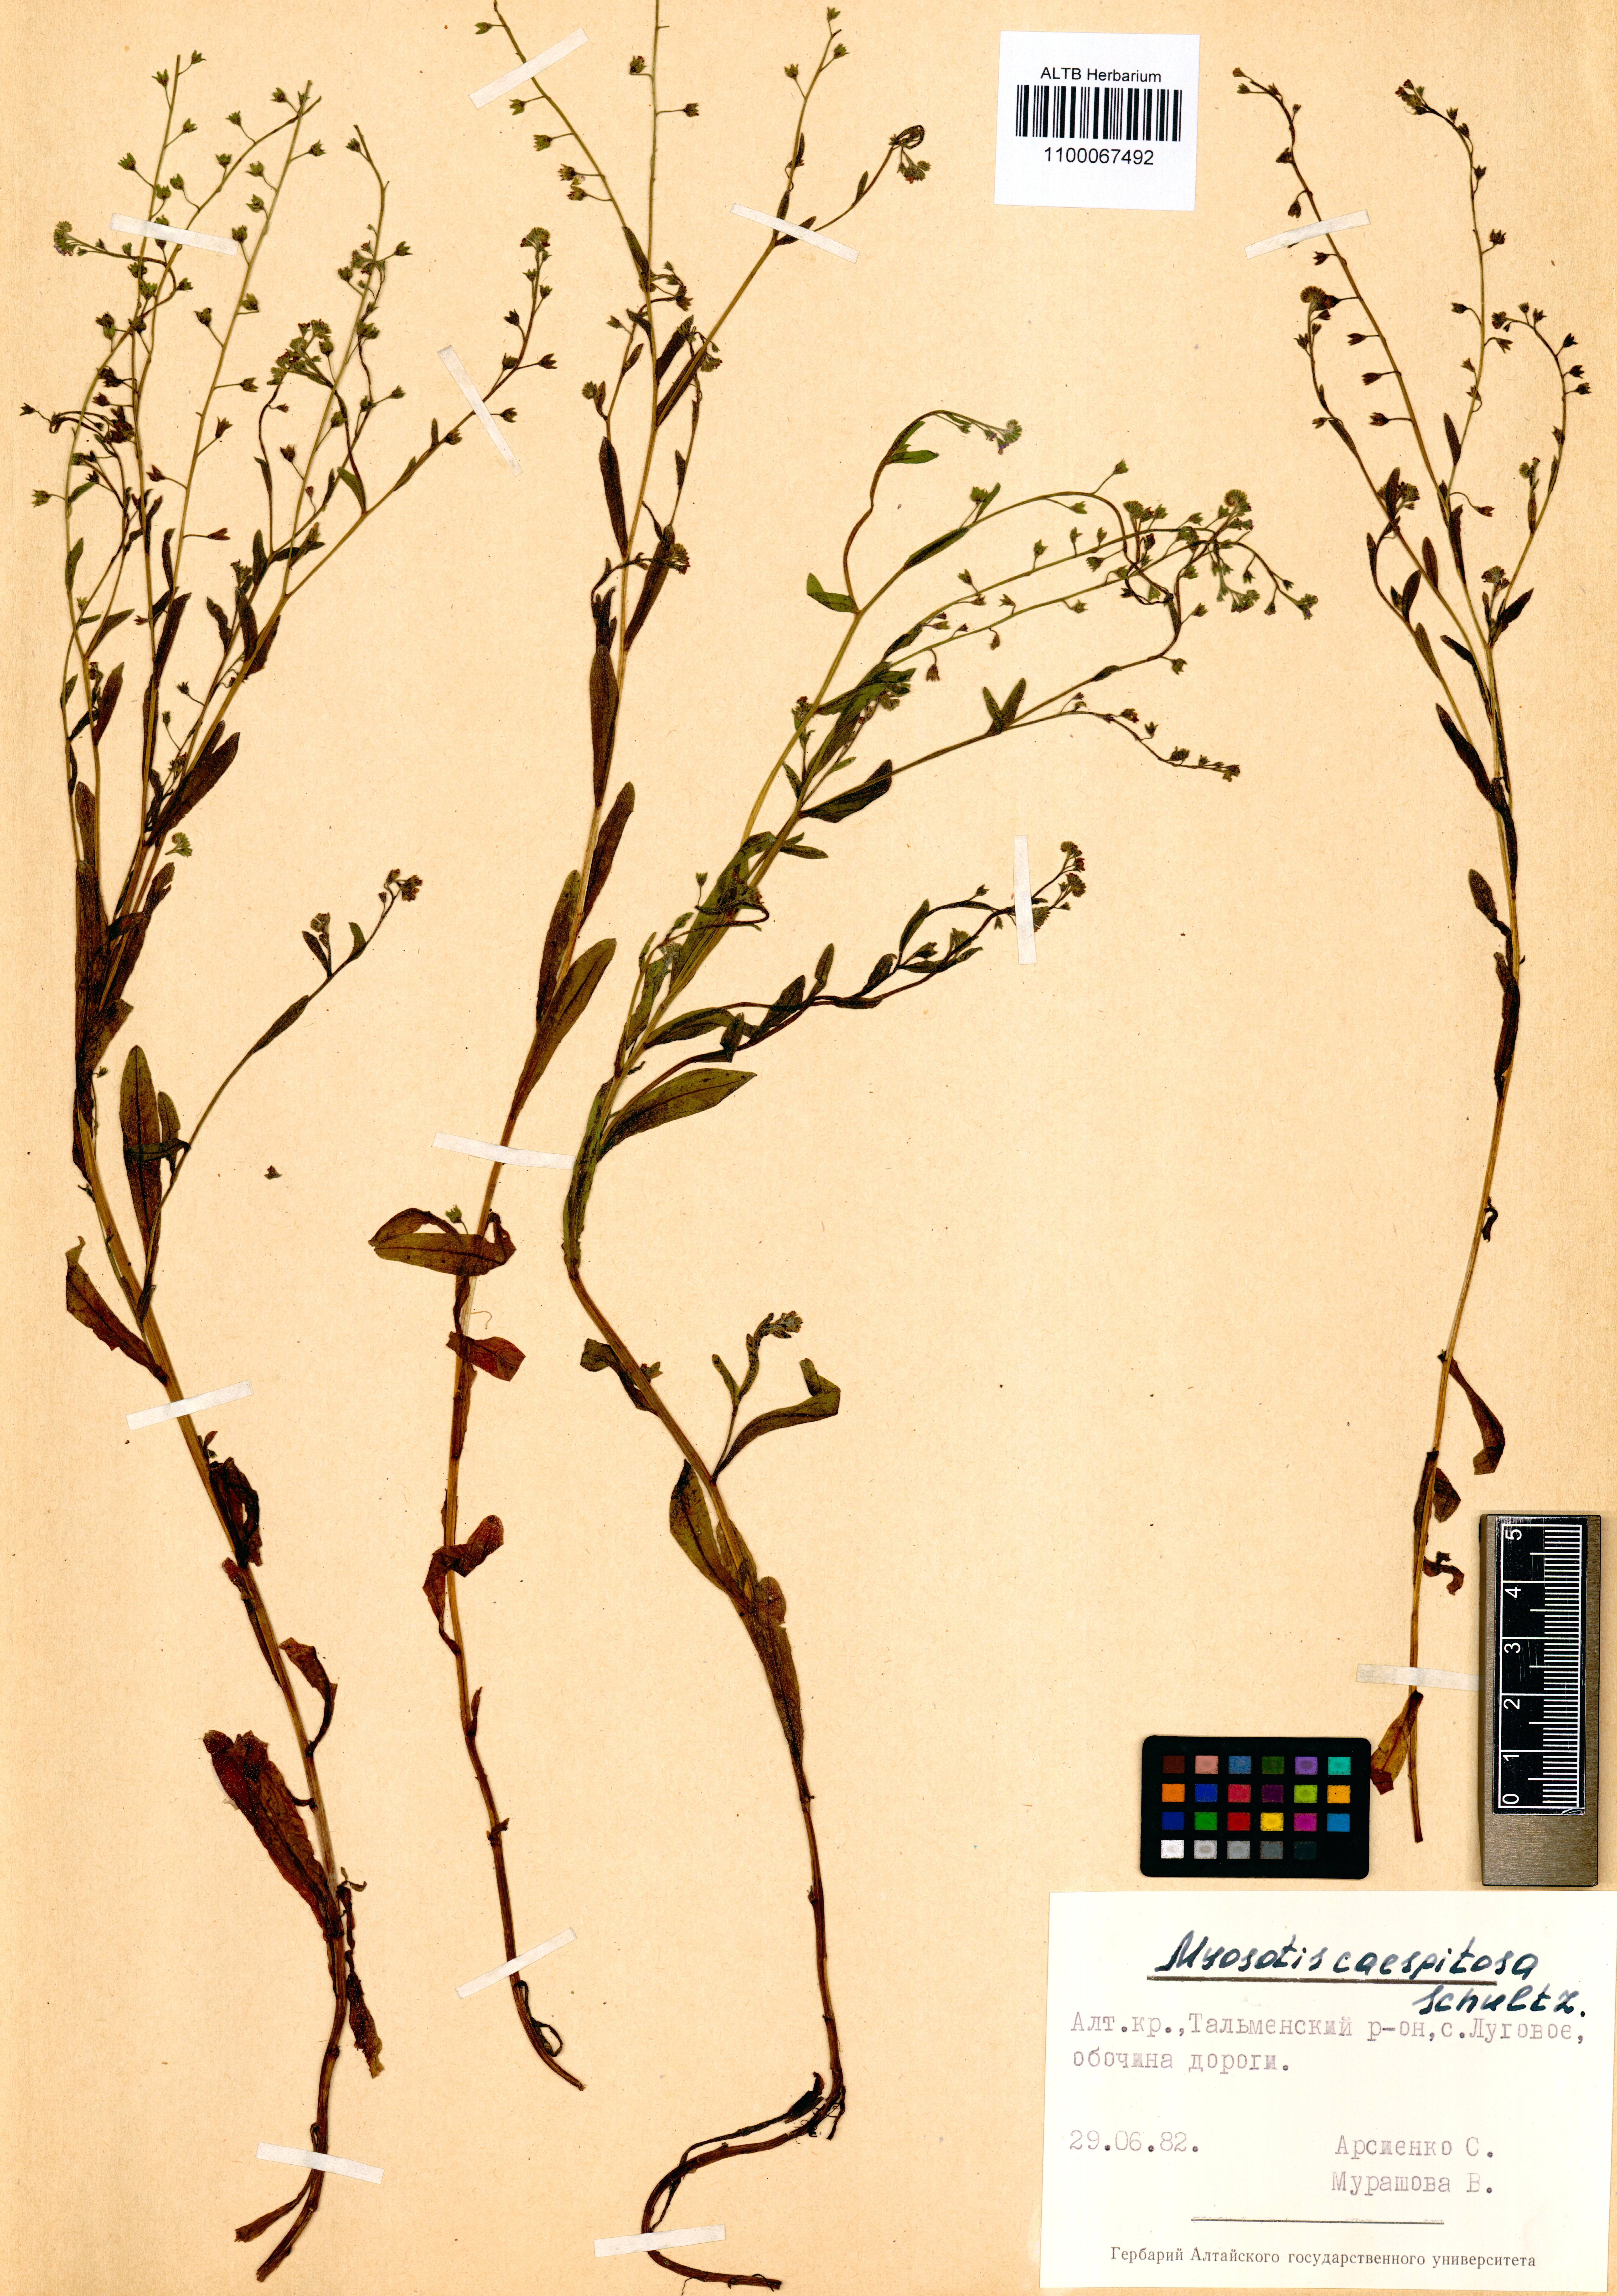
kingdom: Plantae
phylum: Tracheophyta
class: Magnoliopsida
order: Boraginales
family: Boraginaceae
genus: Myosotis
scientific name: Myosotis laxa
